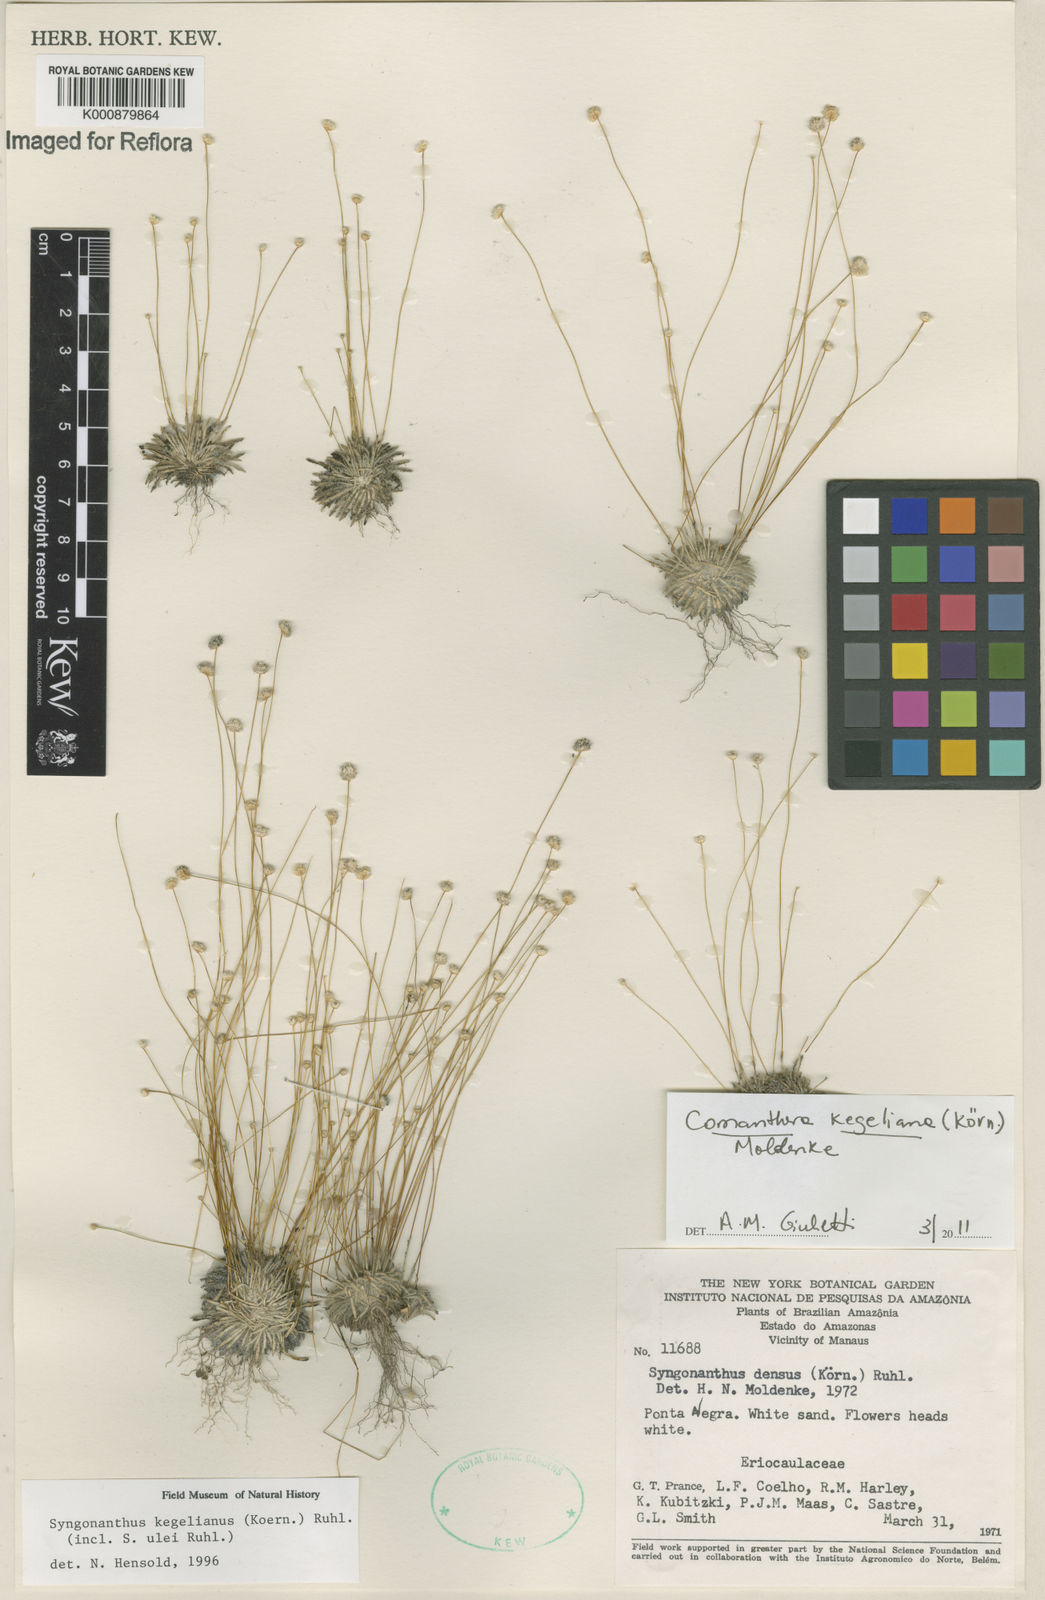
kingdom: Plantae
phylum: Tracheophyta
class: Liliopsida
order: Poales
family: Eriocaulaceae
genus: Comanthera
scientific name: Comanthera
